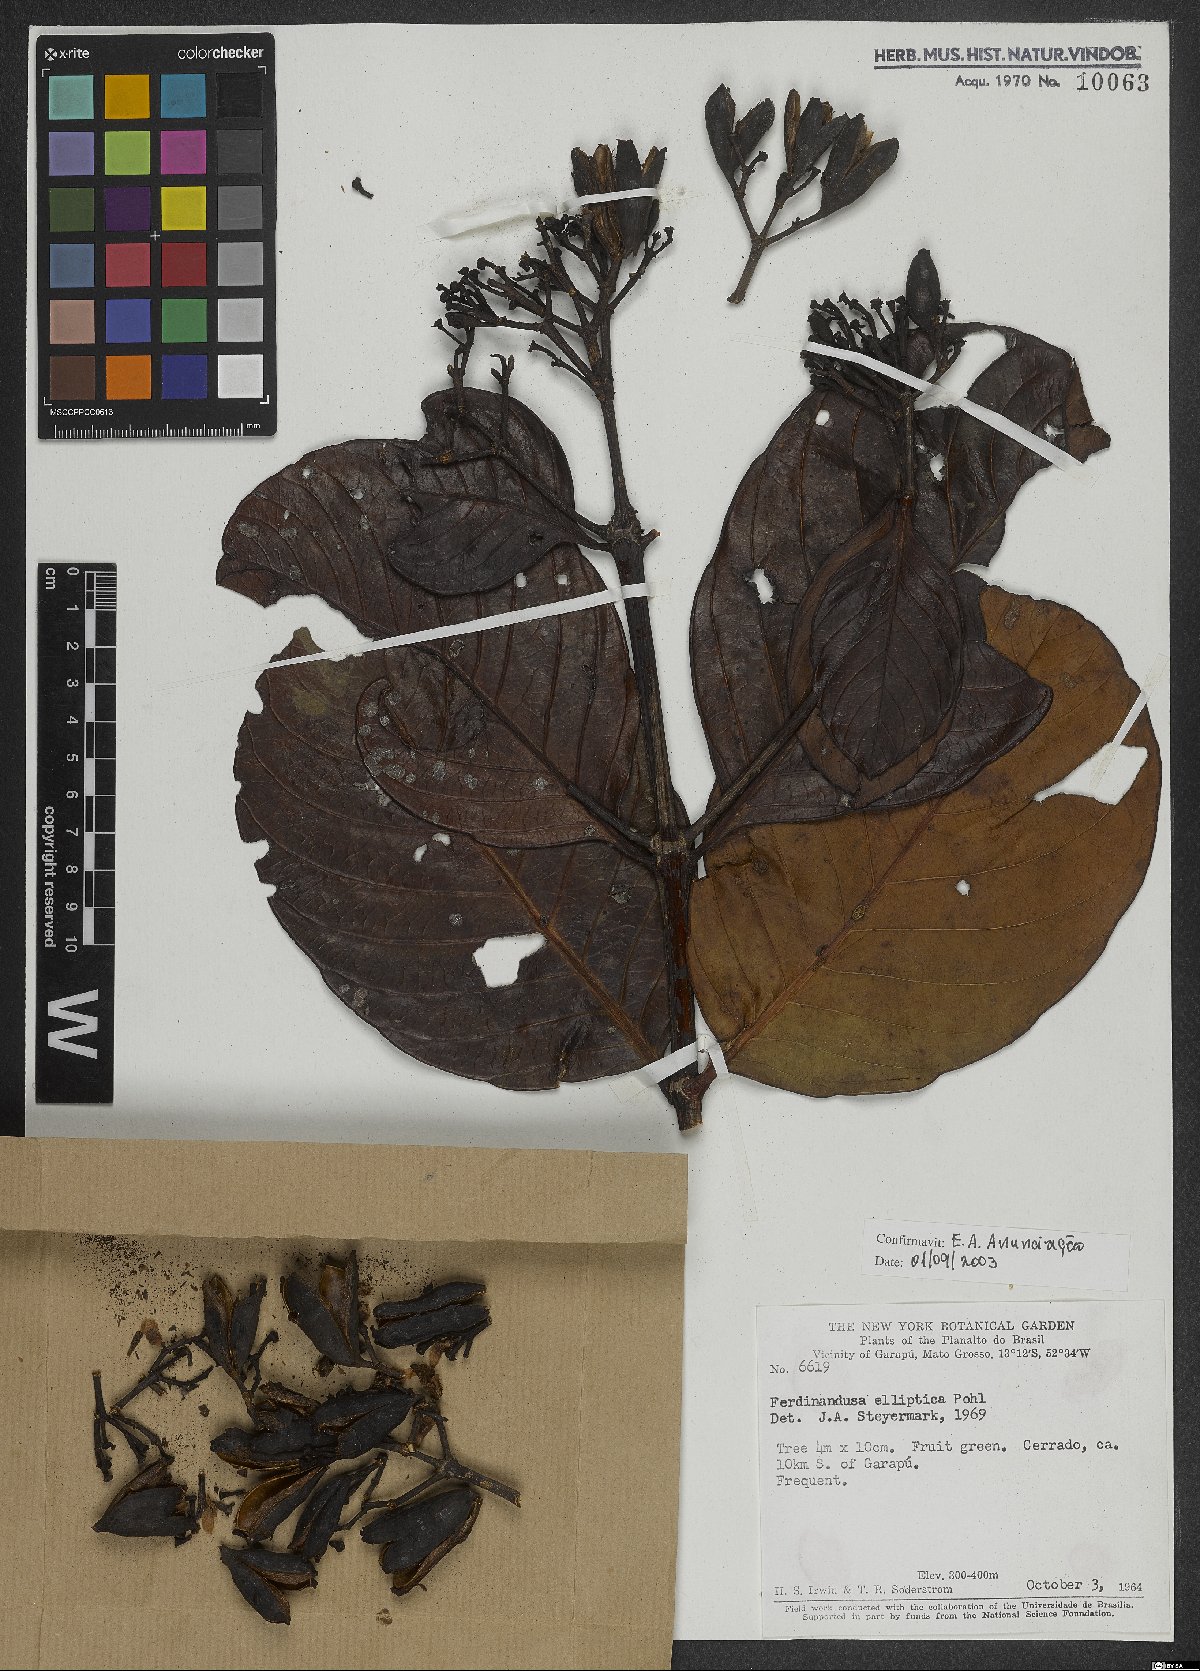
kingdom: Plantae
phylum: Tracheophyta
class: Magnoliopsida
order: Gentianales
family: Rubiaceae
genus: Ferdinandusa
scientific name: Ferdinandusa elliptica
